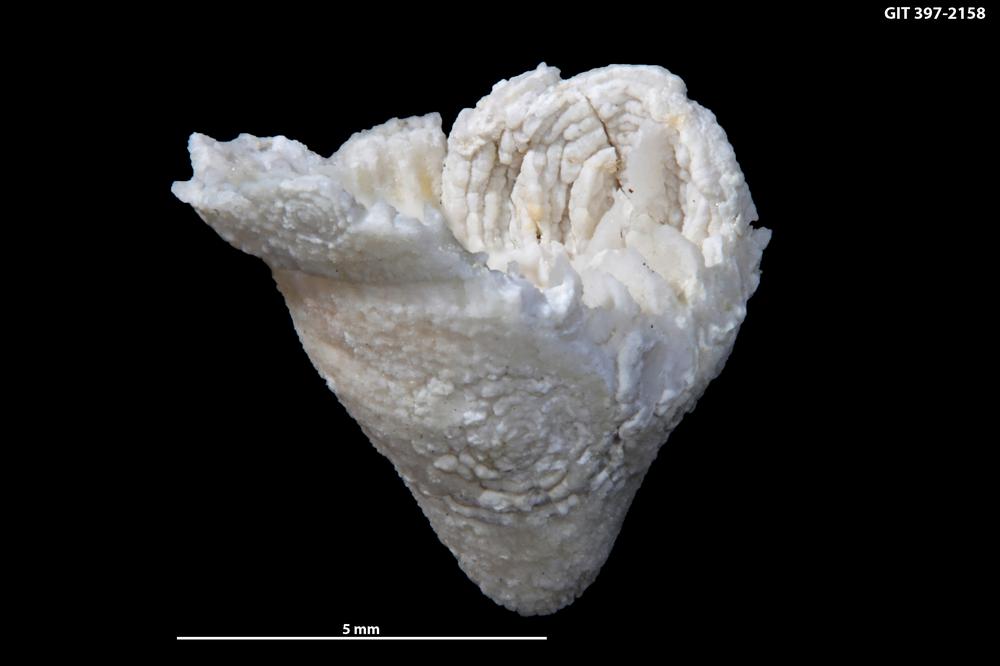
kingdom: Animalia
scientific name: Animalia
